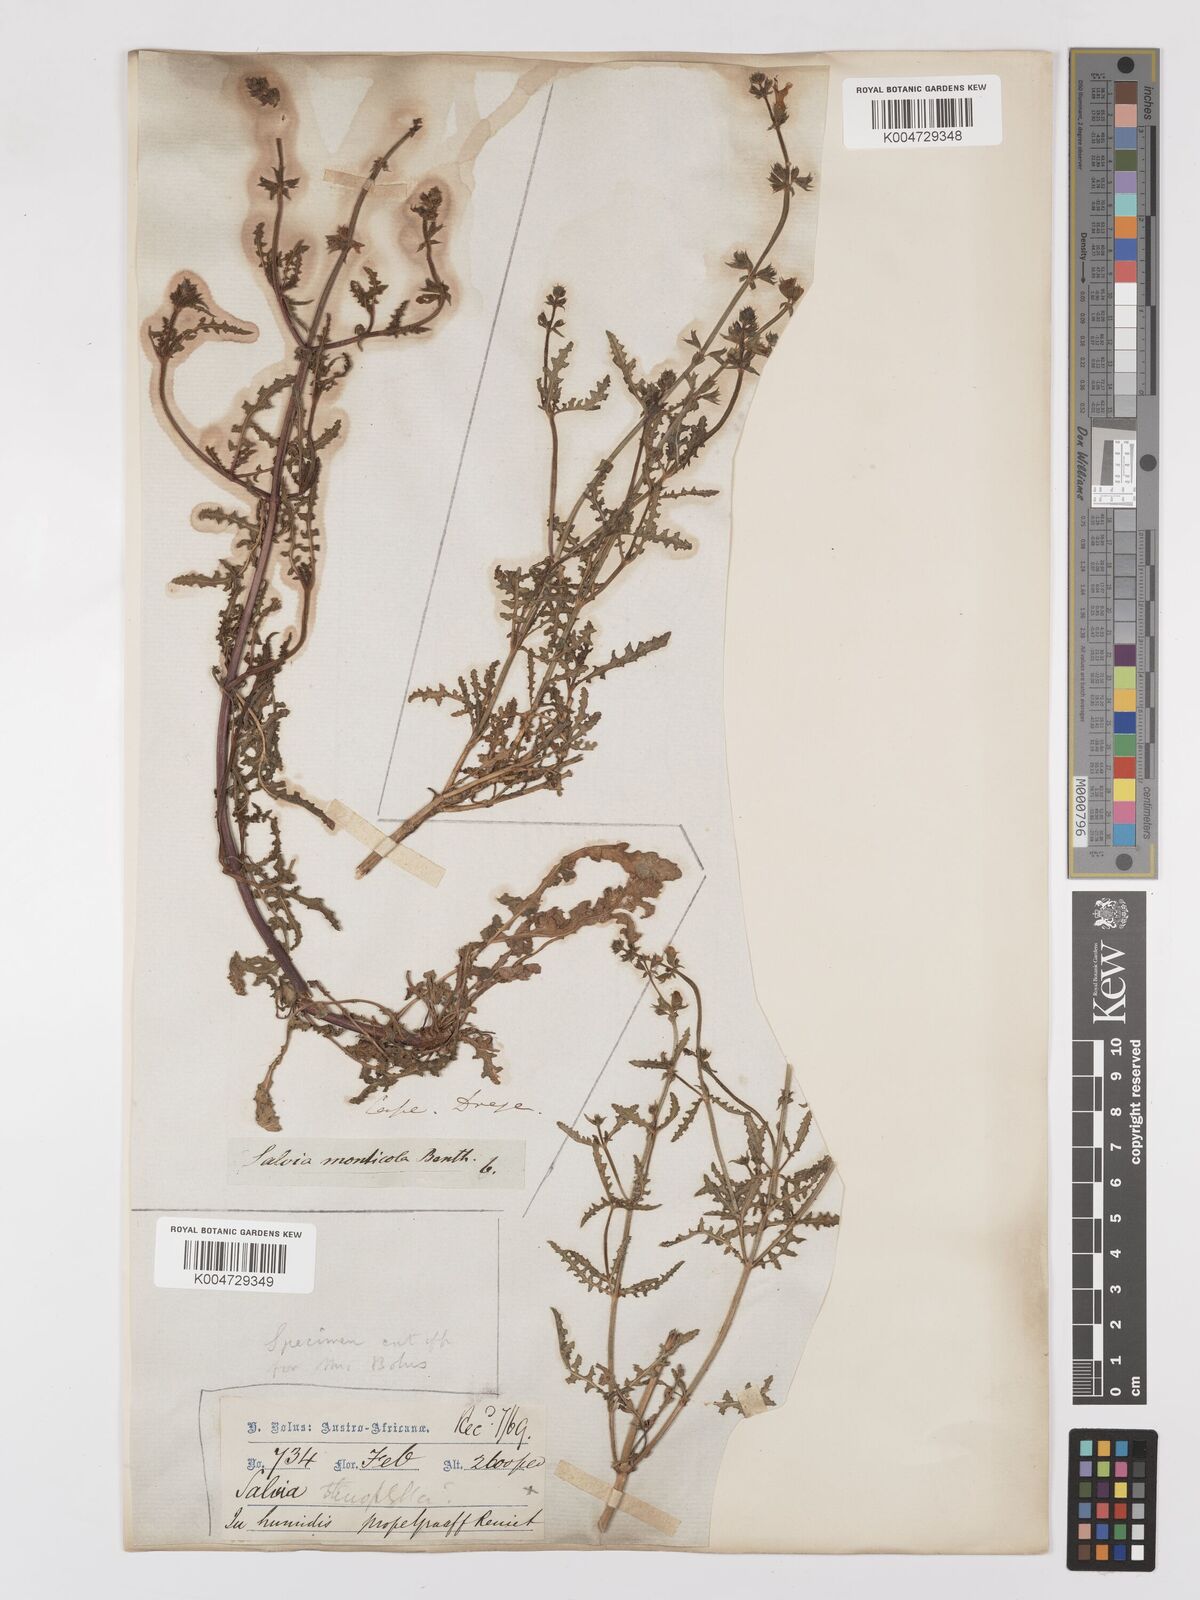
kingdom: Plantae
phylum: Tracheophyta
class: Magnoliopsida
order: Lamiales
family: Lamiaceae
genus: Salvia
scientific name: Salvia stenophylla
